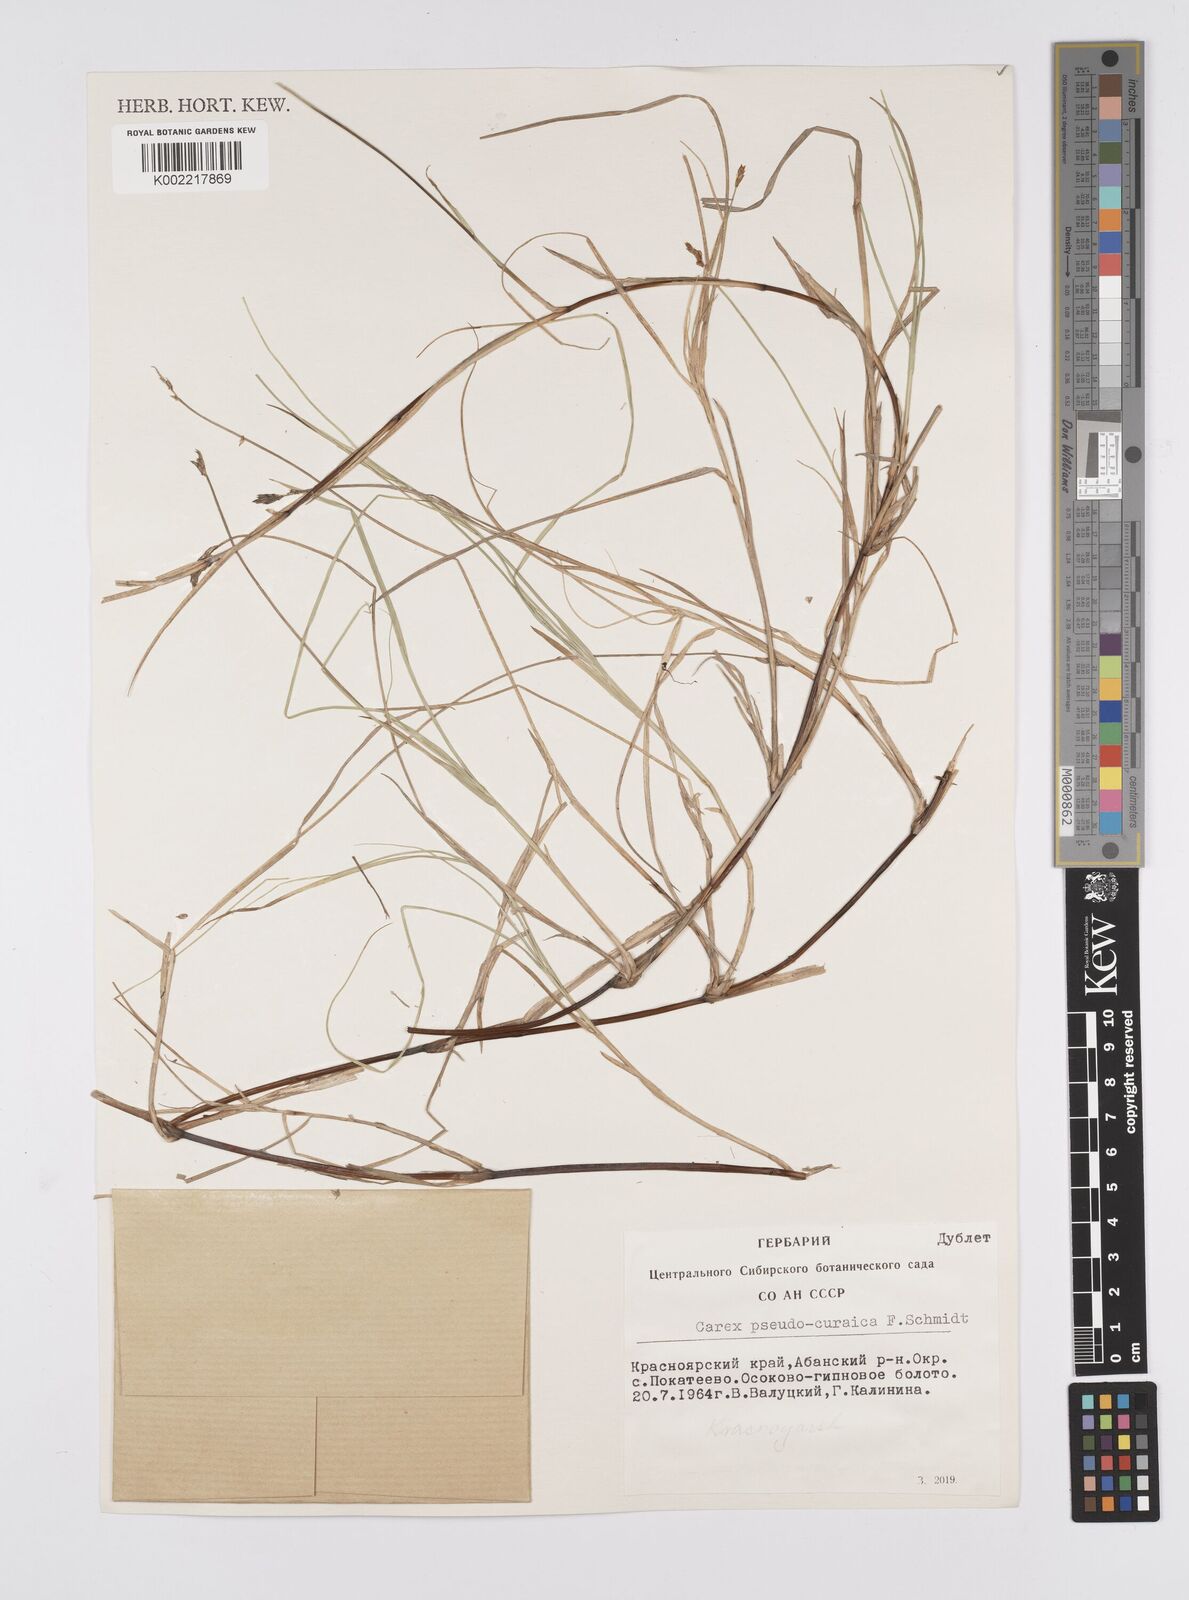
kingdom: Plantae
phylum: Tracheophyta
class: Liliopsida
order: Poales
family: Cyperaceae
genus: Carex
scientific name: Carex pseudocuraica
